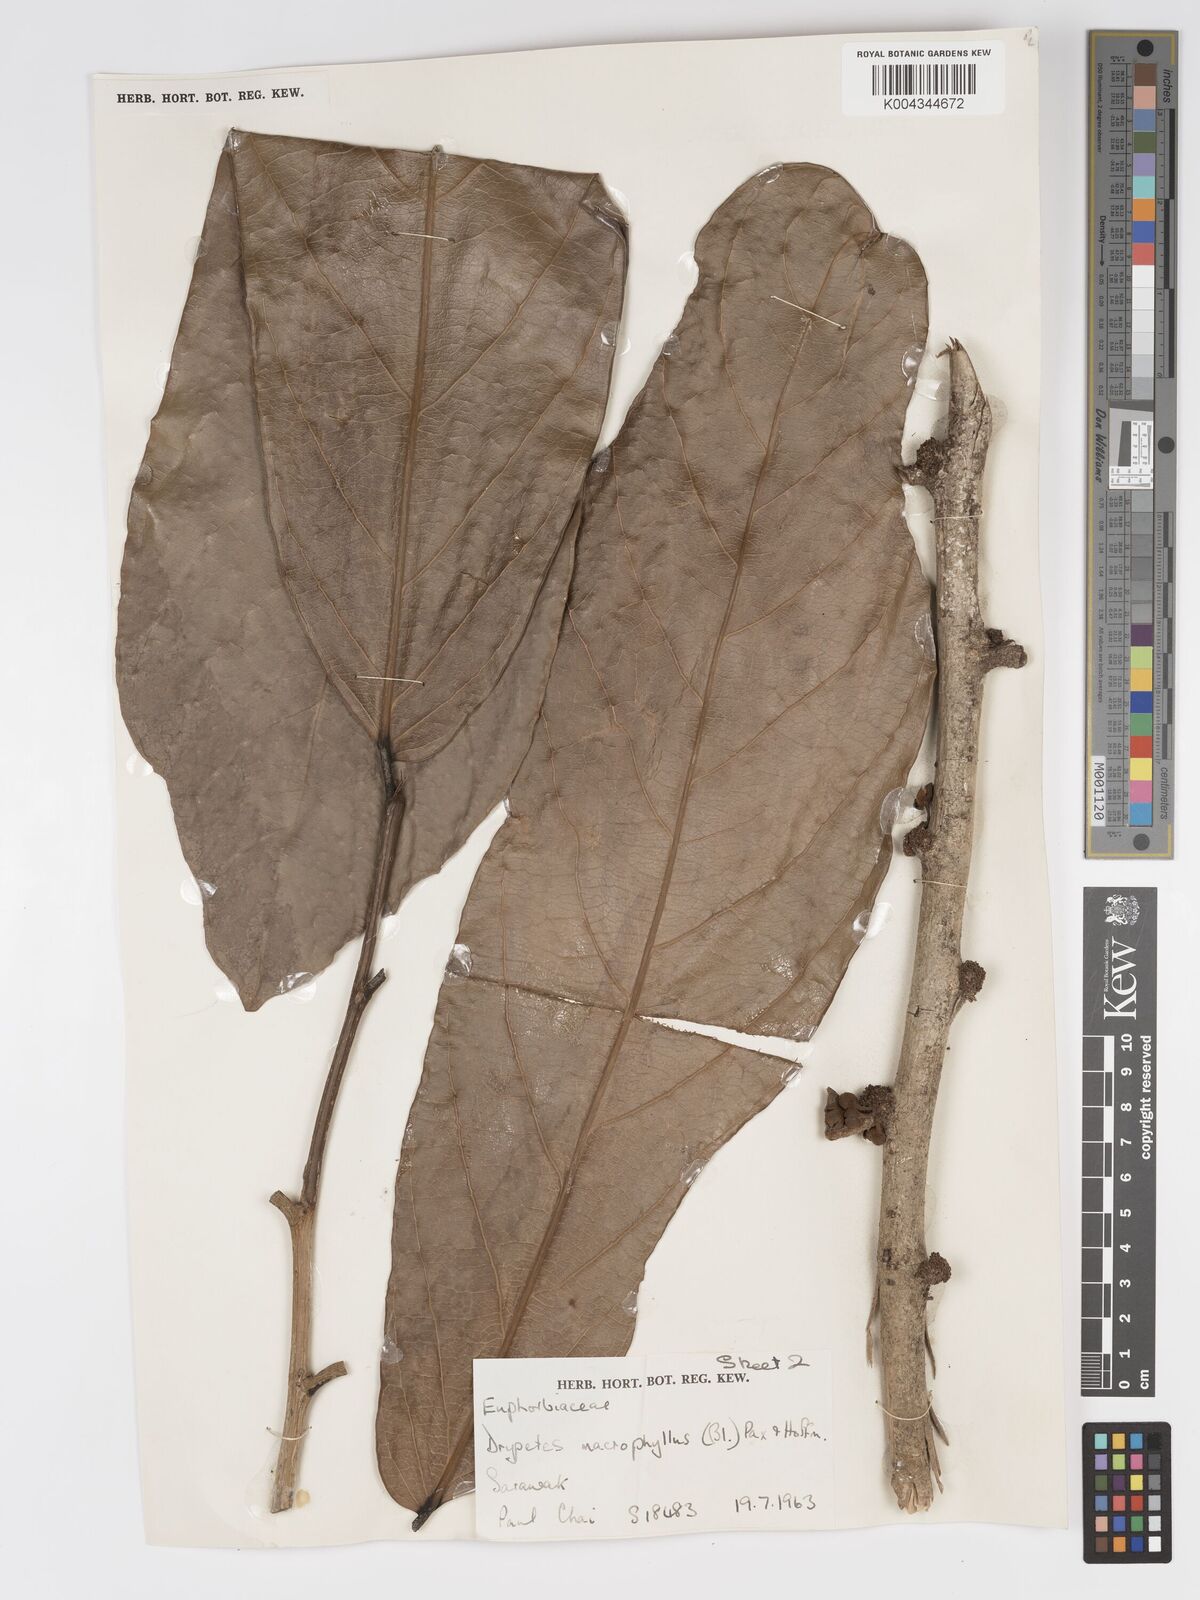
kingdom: Plantae
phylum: Tracheophyta
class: Magnoliopsida
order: Malpighiales
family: Putranjivaceae
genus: Drypetes
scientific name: Drypetes longifolia
